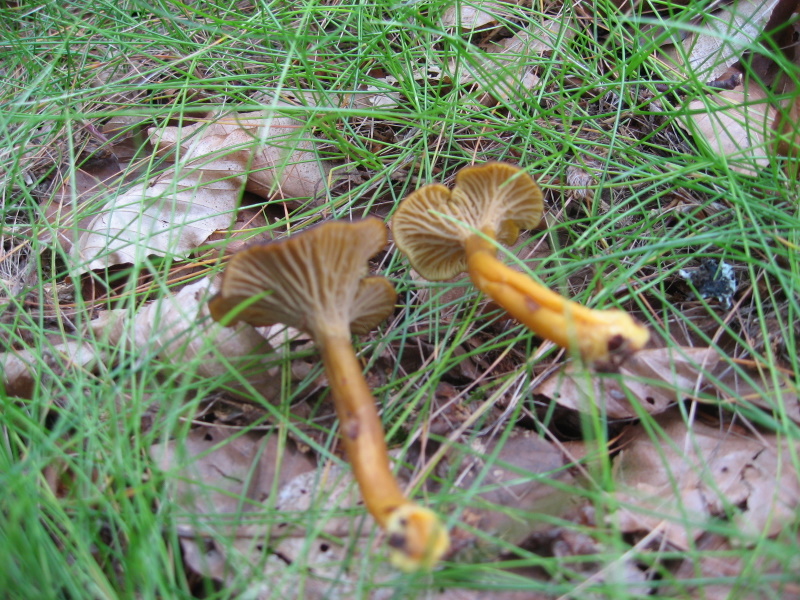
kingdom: Fungi
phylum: Basidiomycota
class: Agaricomycetes
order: Cantharellales
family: Hydnaceae
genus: Craterellus
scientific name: Craterellus tubaeformis
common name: tragt-kantarel
